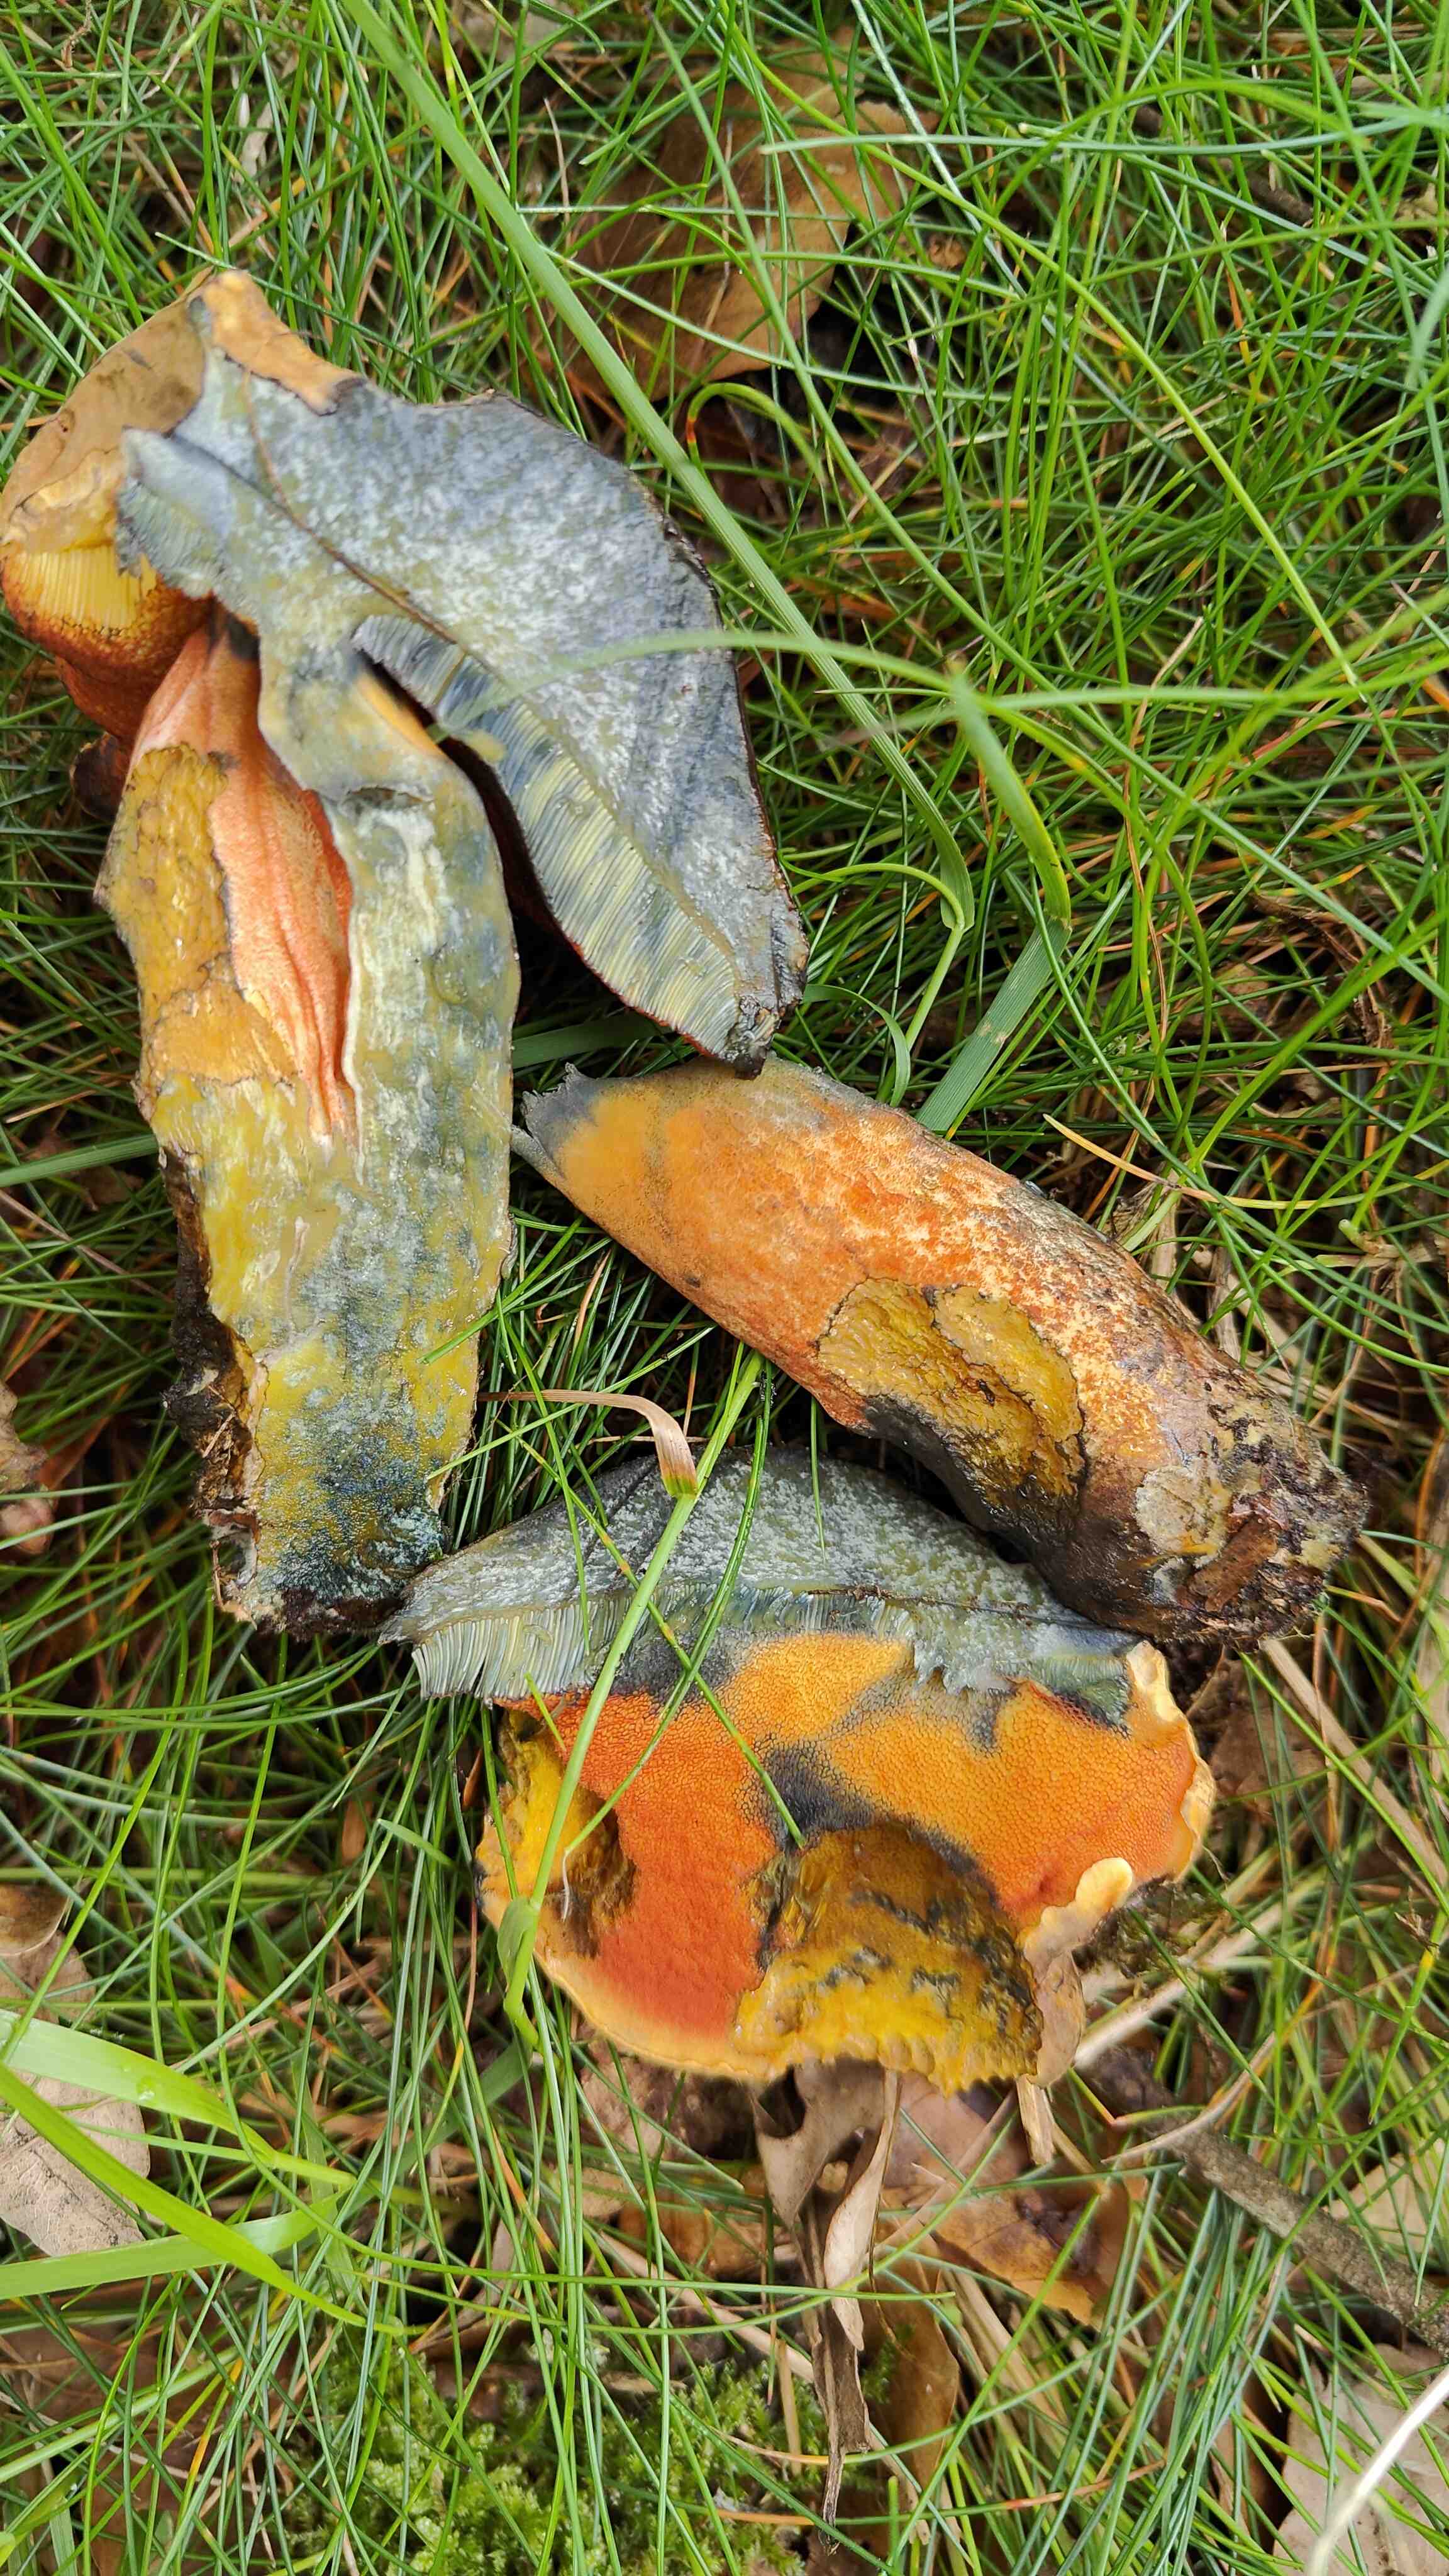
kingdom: Fungi
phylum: Basidiomycota
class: Agaricomycetes
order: Boletales
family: Boletaceae
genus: Neoboletus
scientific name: Neoboletus erythropus
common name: punktstokket indigorørhat
